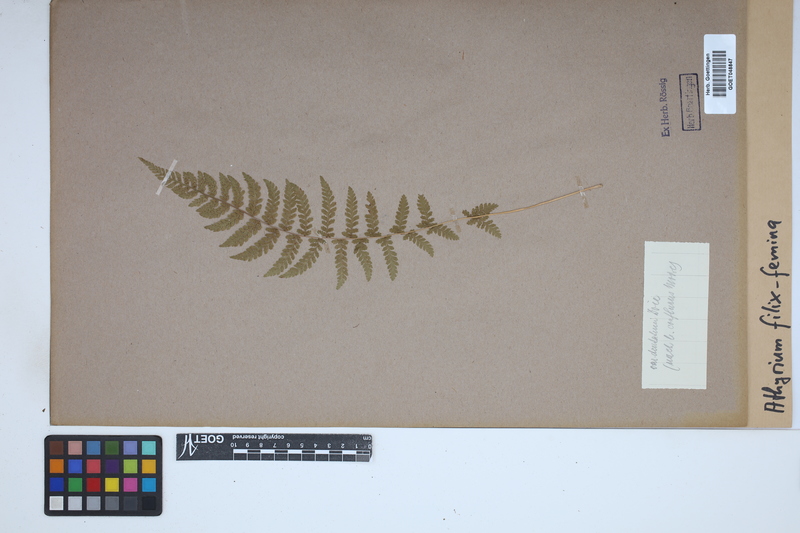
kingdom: Plantae
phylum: Tracheophyta
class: Polypodiopsida
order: Polypodiales
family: Athyriaceae
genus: Athyrium
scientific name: Athyrium filix-femina
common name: Lady fern
